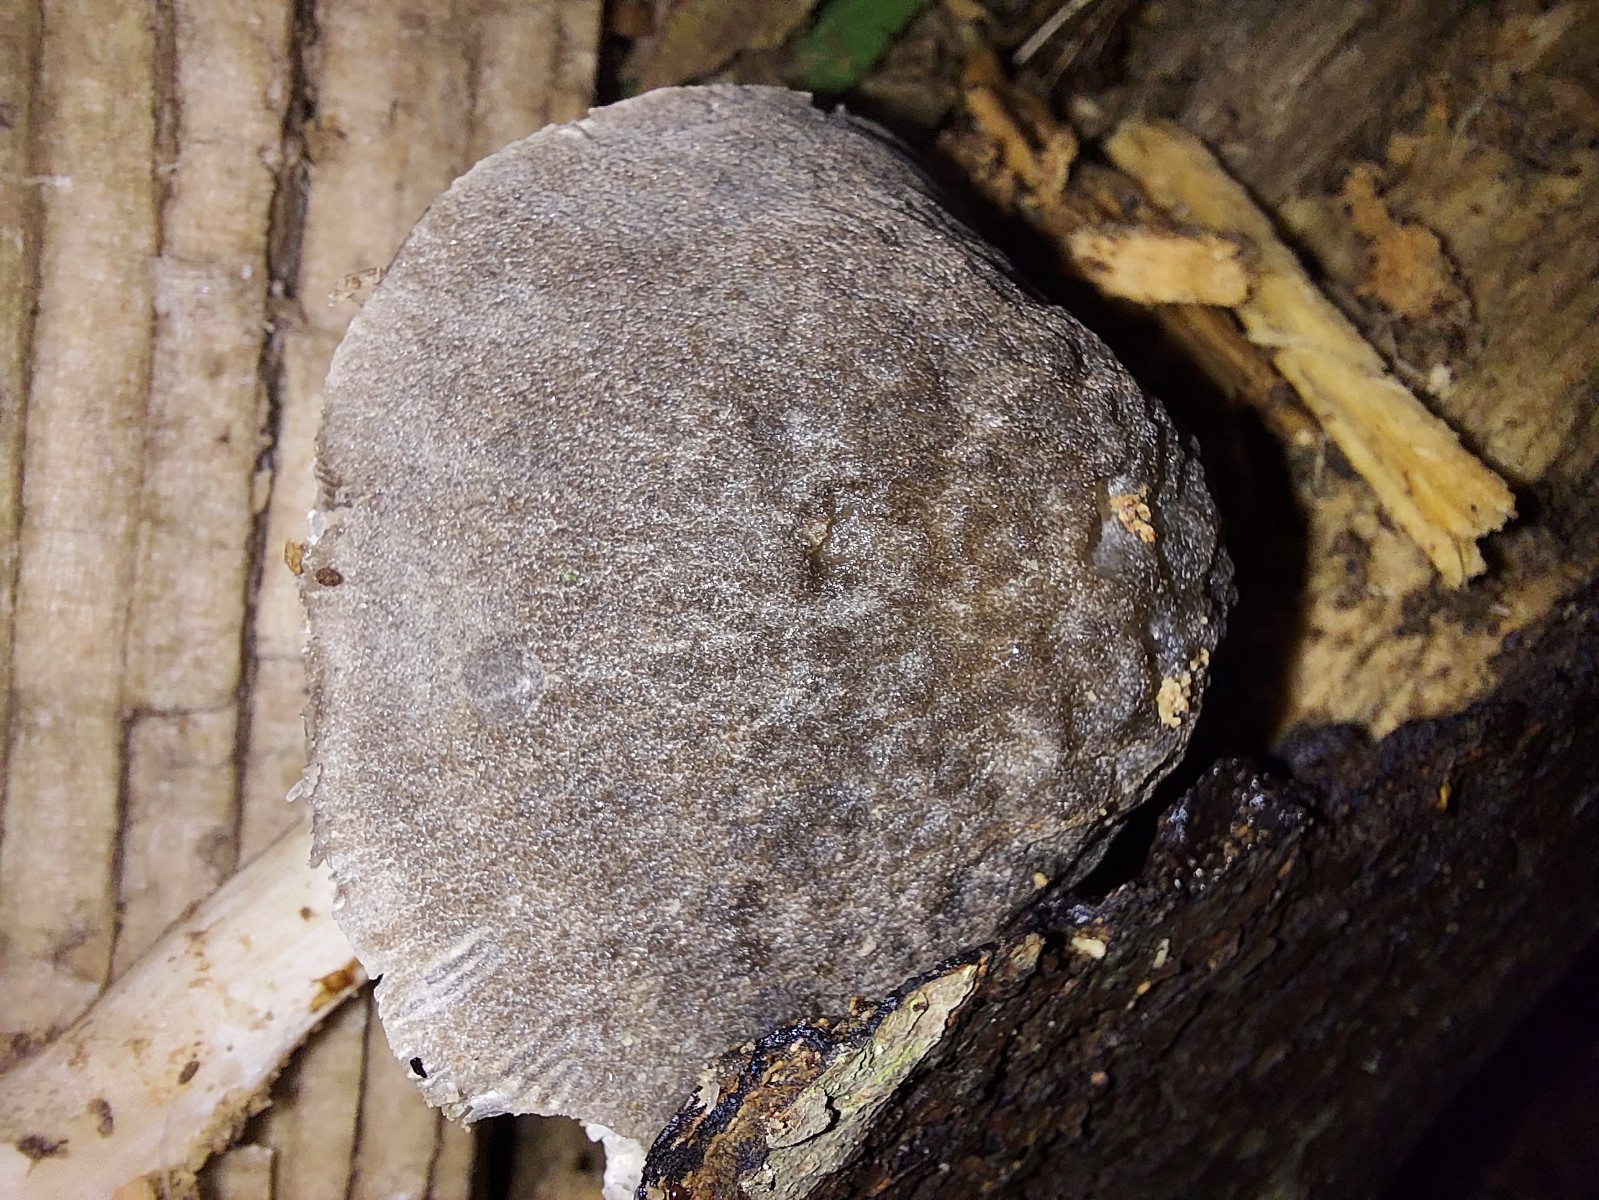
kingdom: Fungi
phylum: Basidiomycota
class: Agaricomycetes
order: Agaricales
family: Pluteaceae
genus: Pluteus
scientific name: Pluteus plautus
